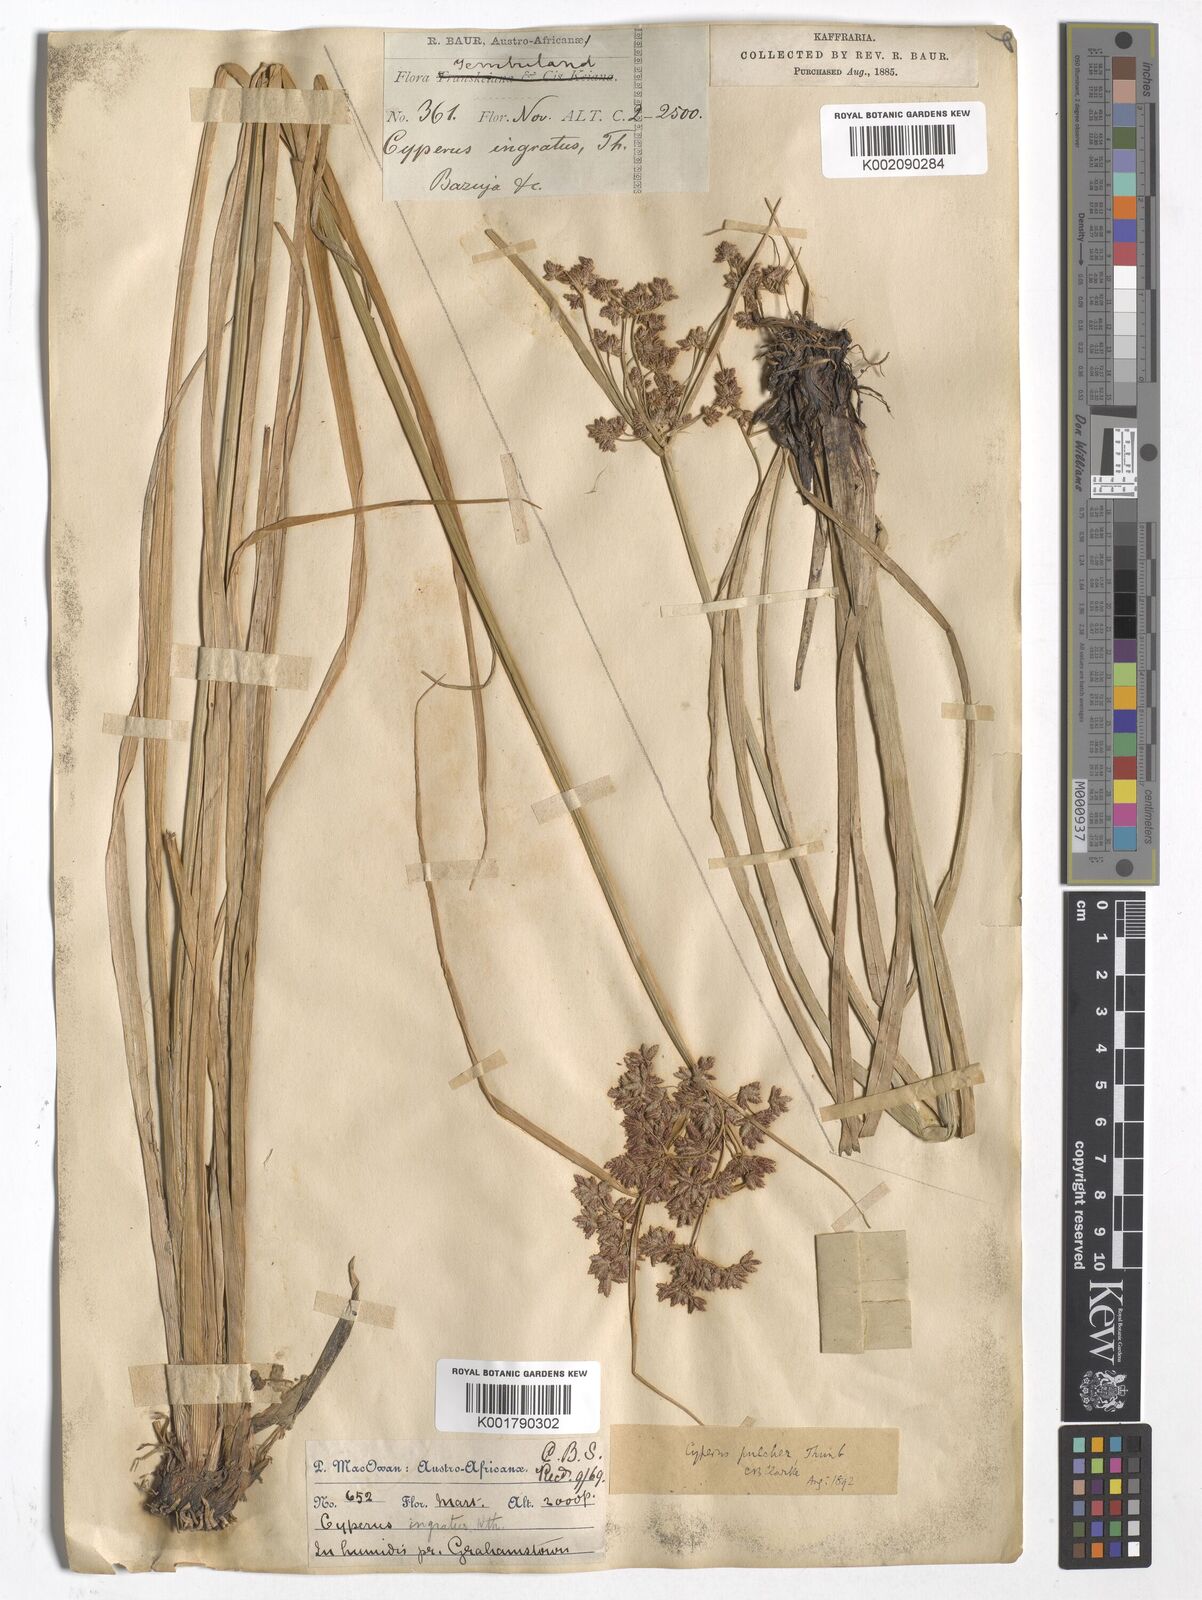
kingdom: Plantae
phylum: Tracheophyta
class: Liliopsida
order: Poales
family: Cyperaceae
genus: Cyperus
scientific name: Cyperus pulcher
